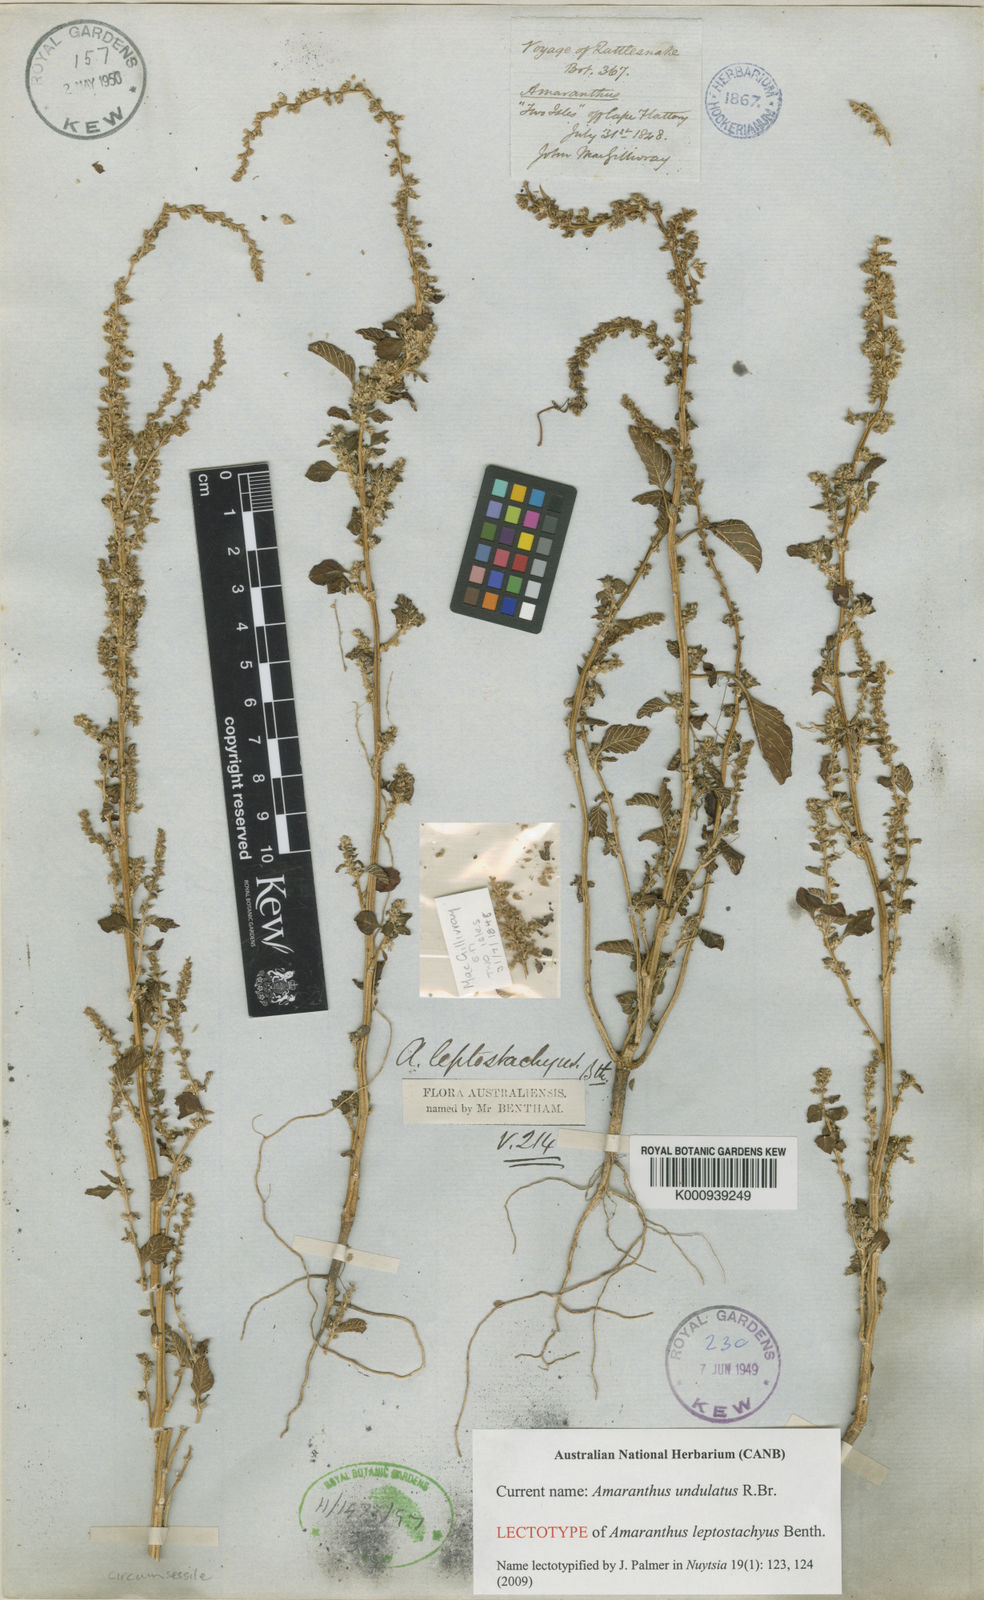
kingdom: Plantae
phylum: Tracheophyta
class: Magnoliopsida
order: Caryophyllales
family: Amaranthaceae
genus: Amaranthus
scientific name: Amaranthus undulatus
